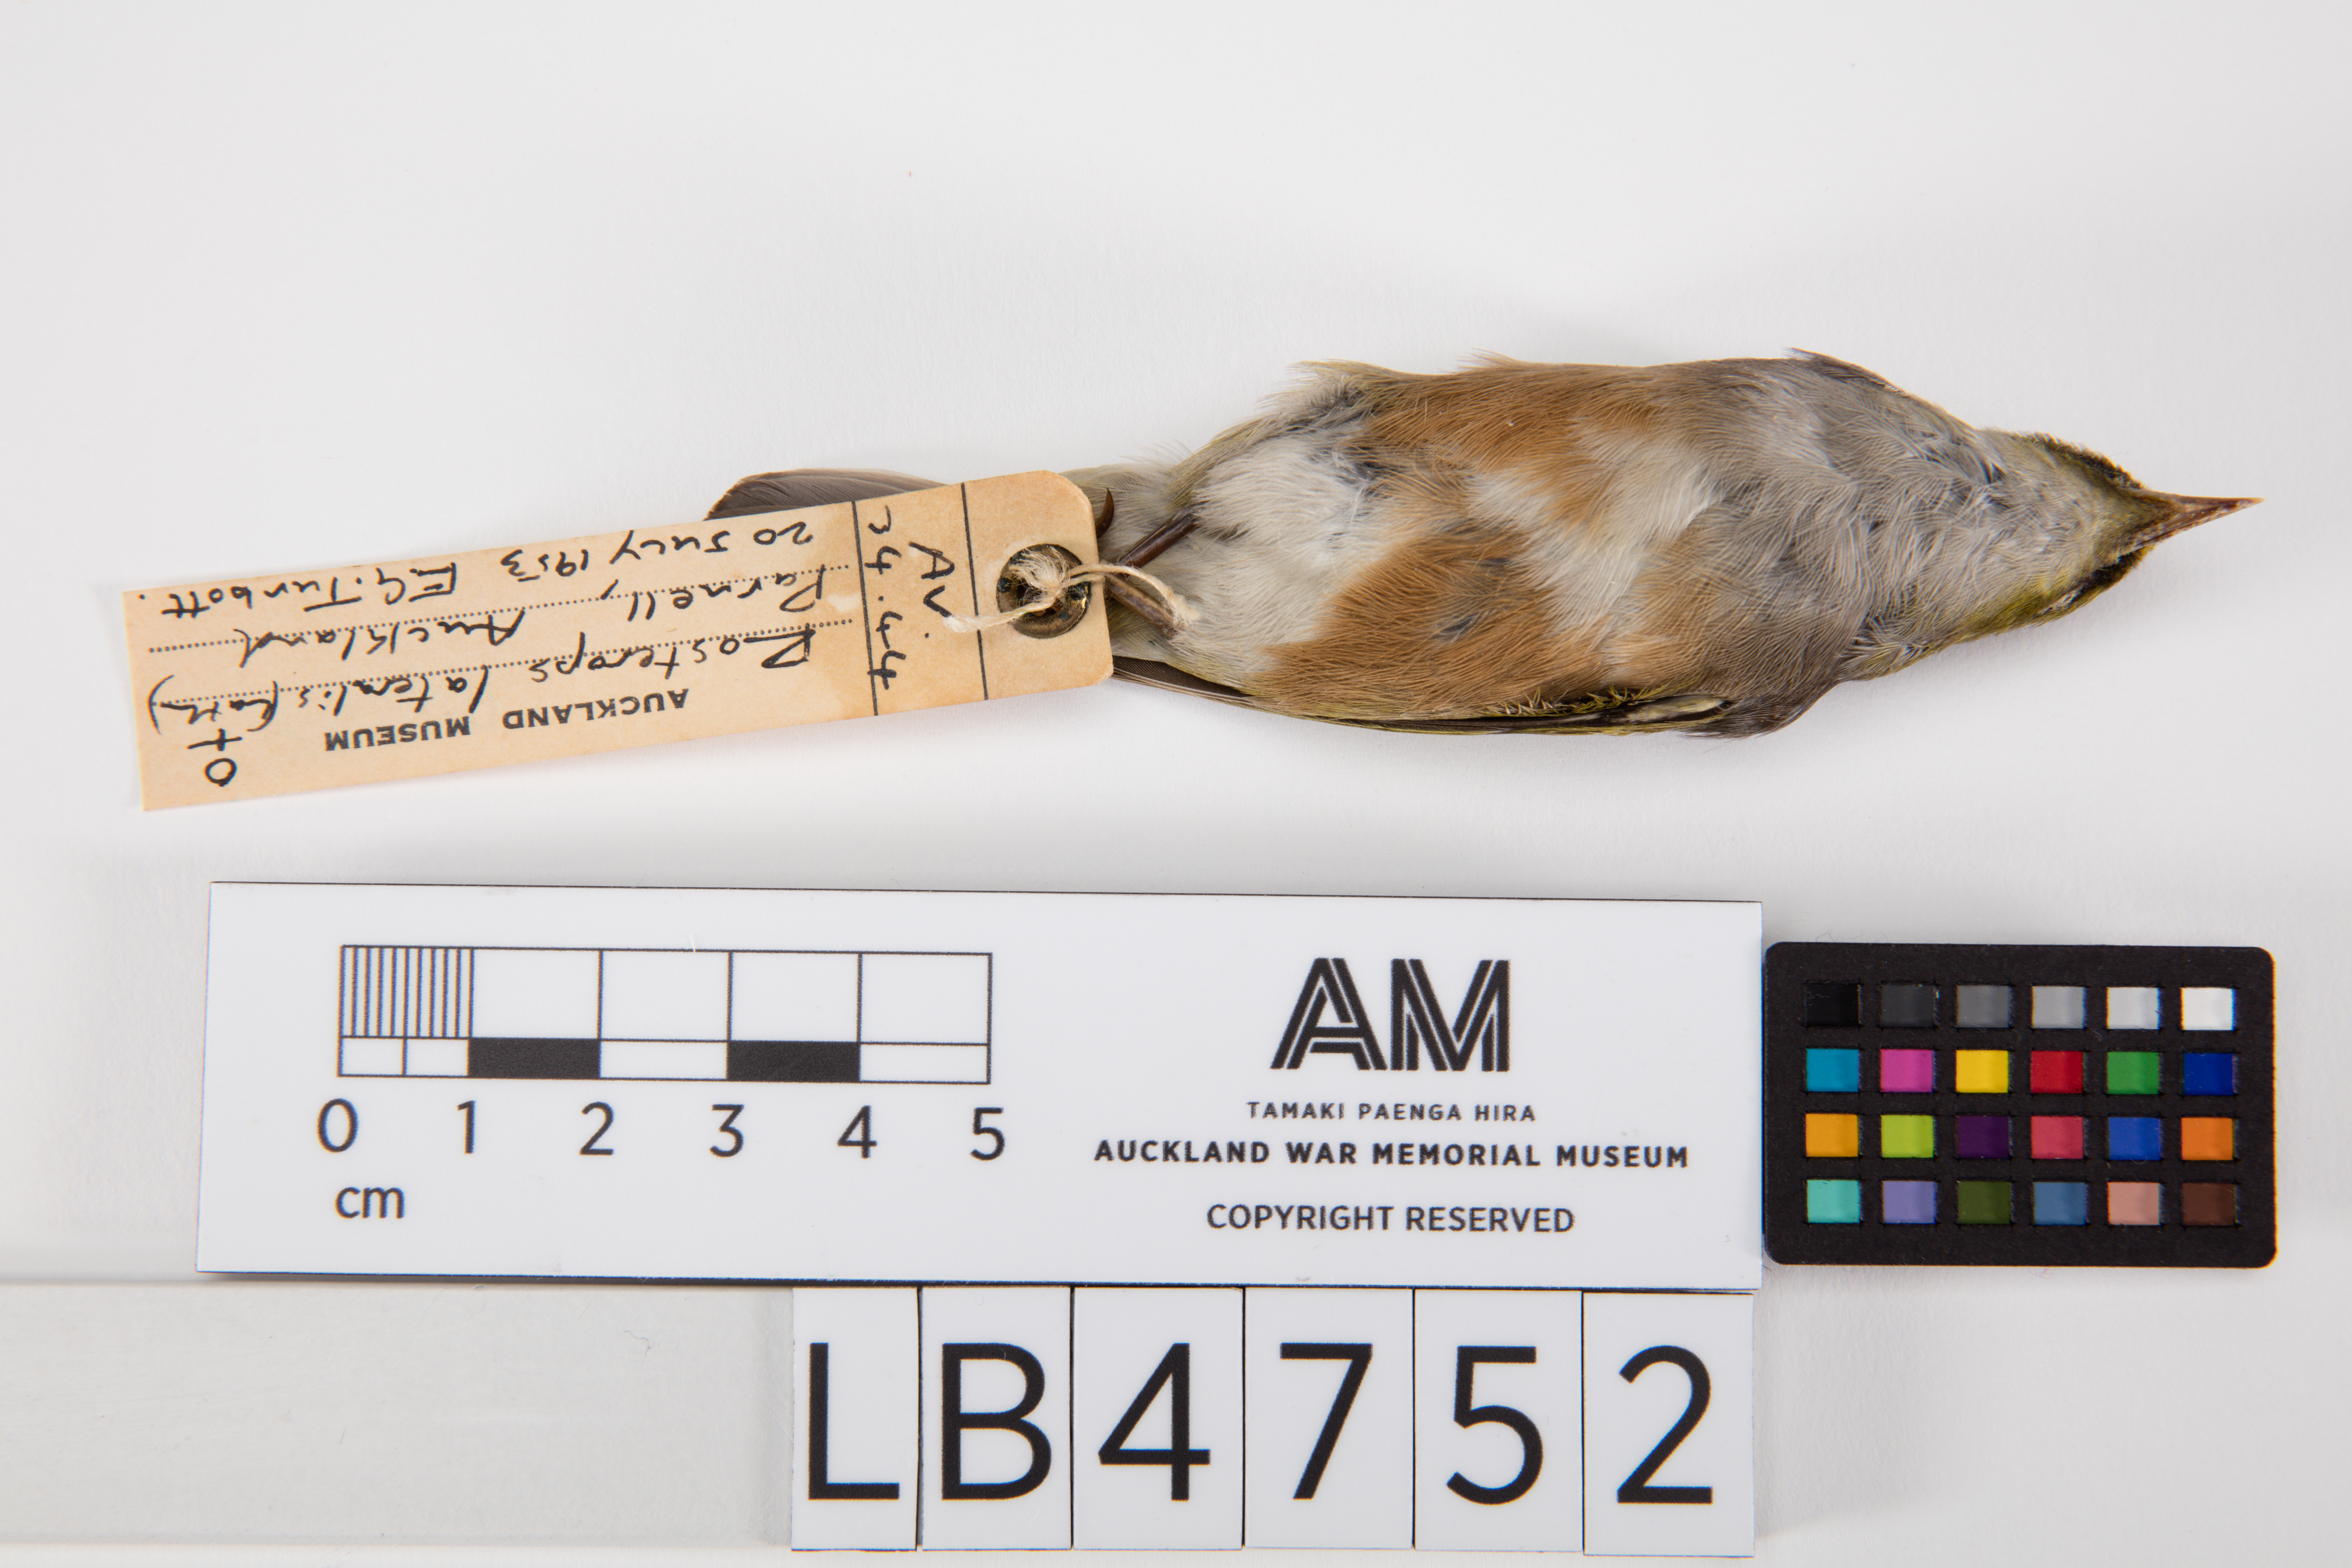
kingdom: Animalia
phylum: Chordata
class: Aves
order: Passeriformes
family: Zosteropidae
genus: Zosterops
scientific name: Zosterops lateralis
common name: Silvereye
